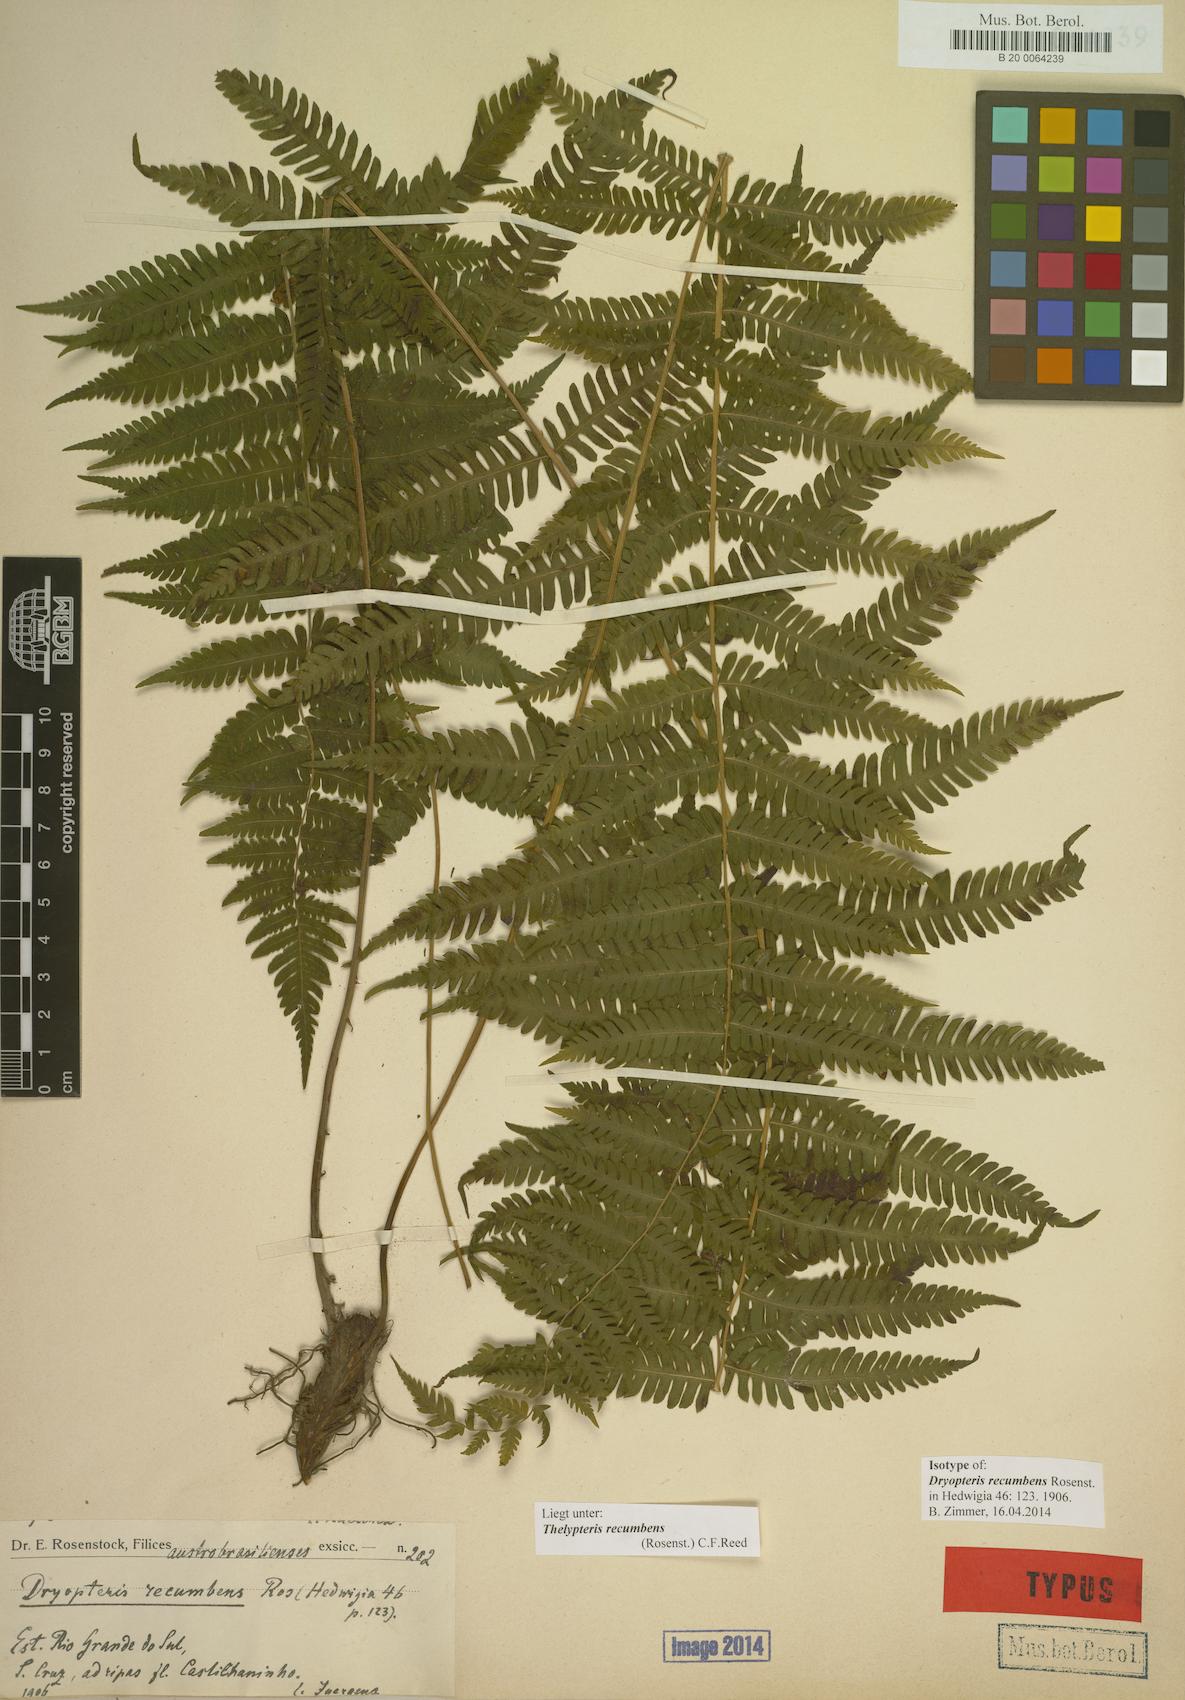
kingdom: Plantae
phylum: Tracheophyta
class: Polypodiopsida
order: Polypodiales
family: Thelypteridaceae
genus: Amauropelta
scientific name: Amauropelta recumbens
